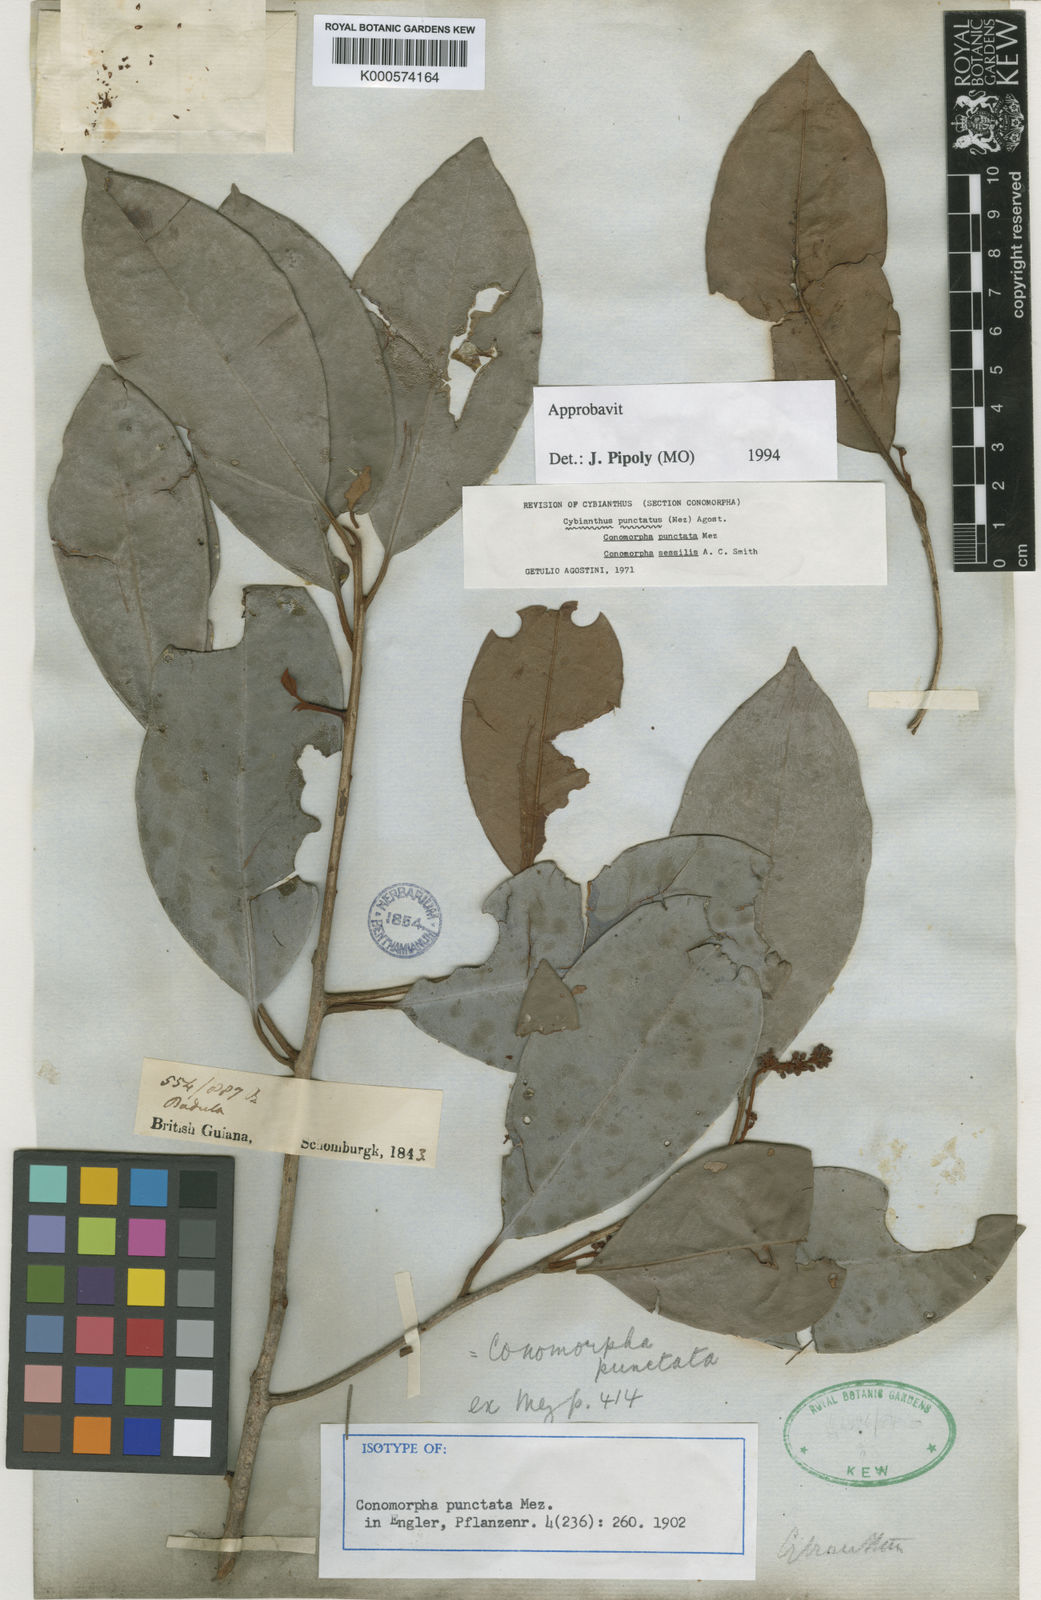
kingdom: Plantae
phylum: Tracheophyta
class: Magnoliopsida
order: Ericales
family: Primulaceae
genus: Cybianthus
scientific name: Cybianthus punctatus
